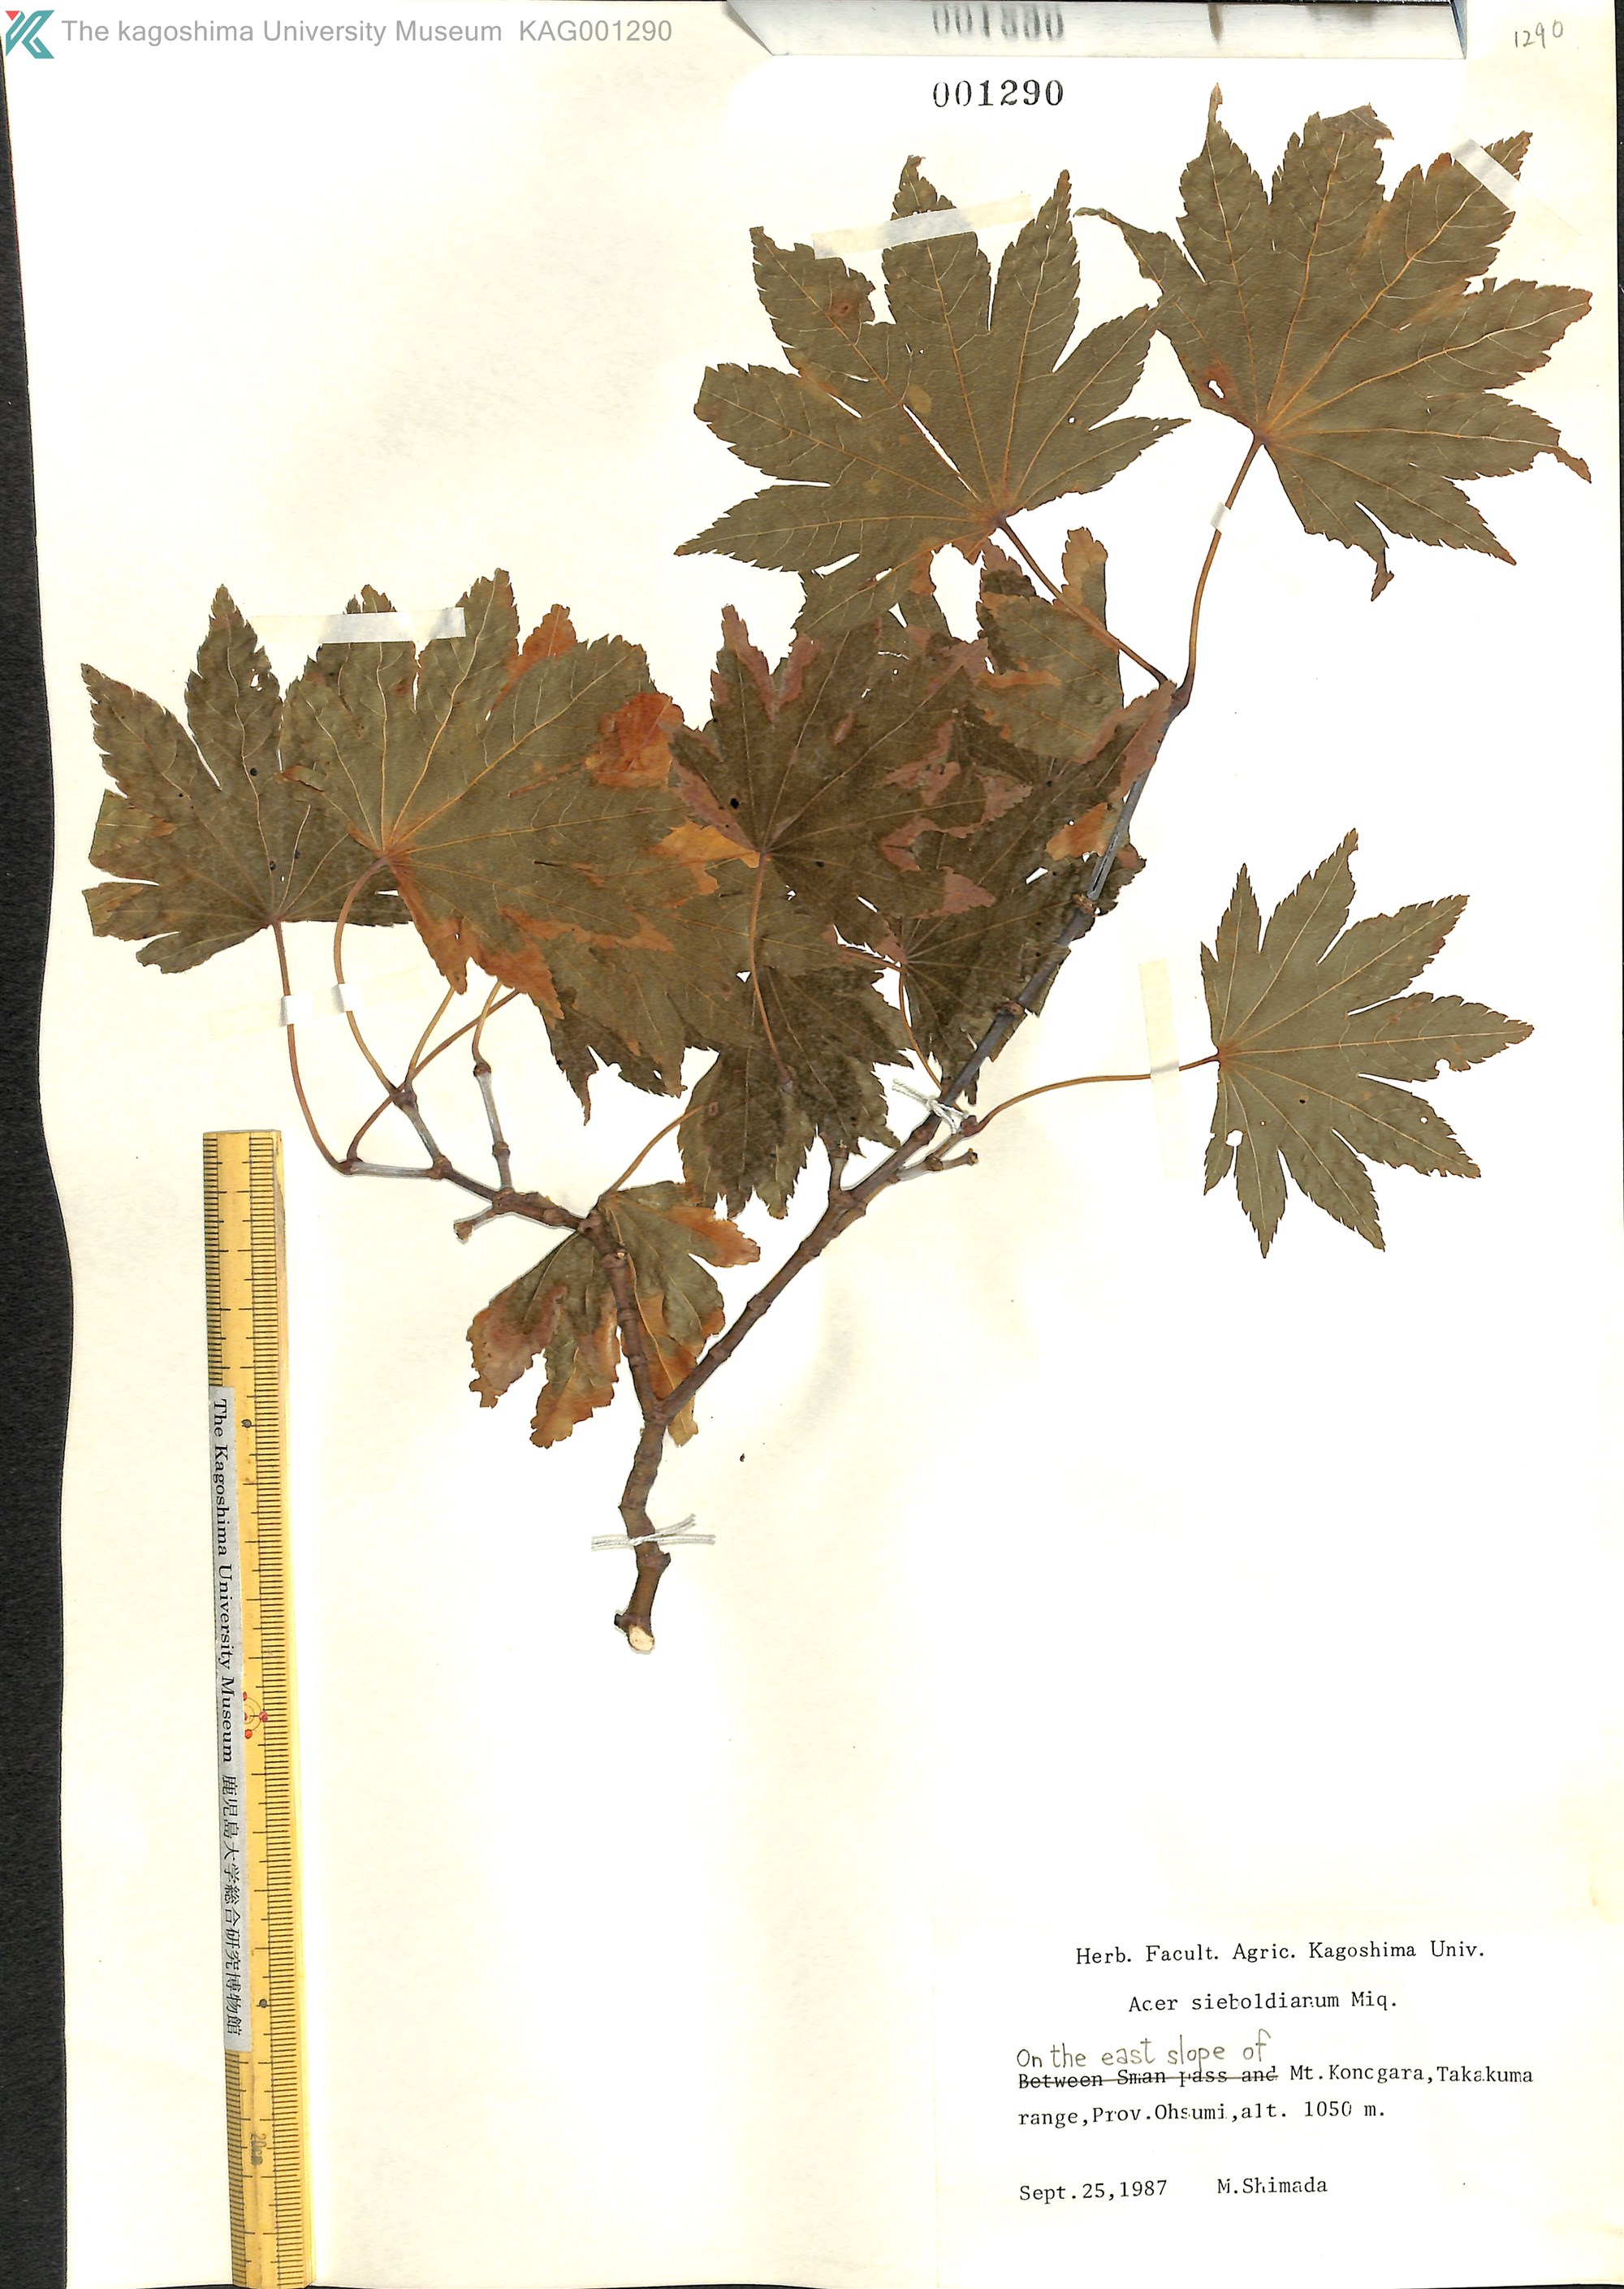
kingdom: Plantae
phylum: Tracheophyta
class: Magnoliopsida
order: Sapindales
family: Sapindaceae
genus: Acer
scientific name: Acer sieboldianum
